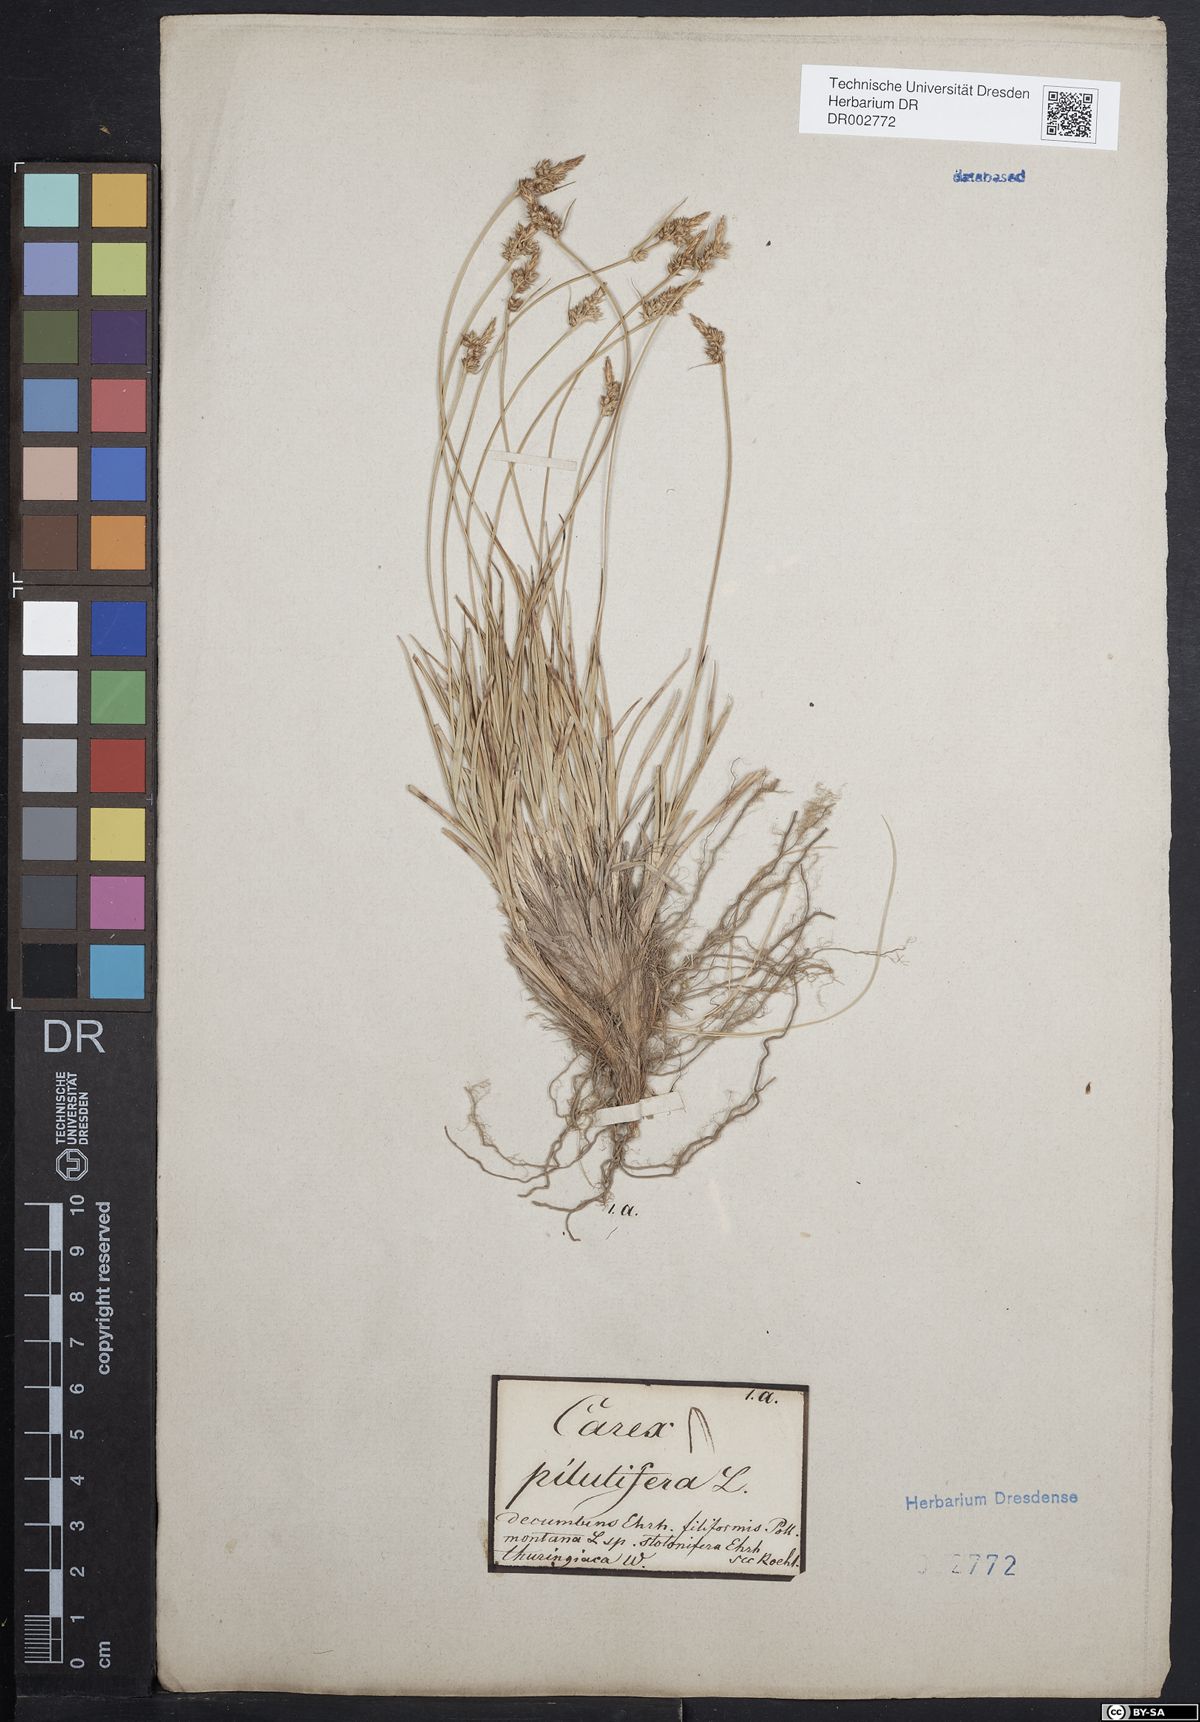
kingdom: Plantae
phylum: Tracheophyta
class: Liliopsida
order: Poales
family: Cyperaceae
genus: Carex
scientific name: Carex caryophyllea
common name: Spring sedge
